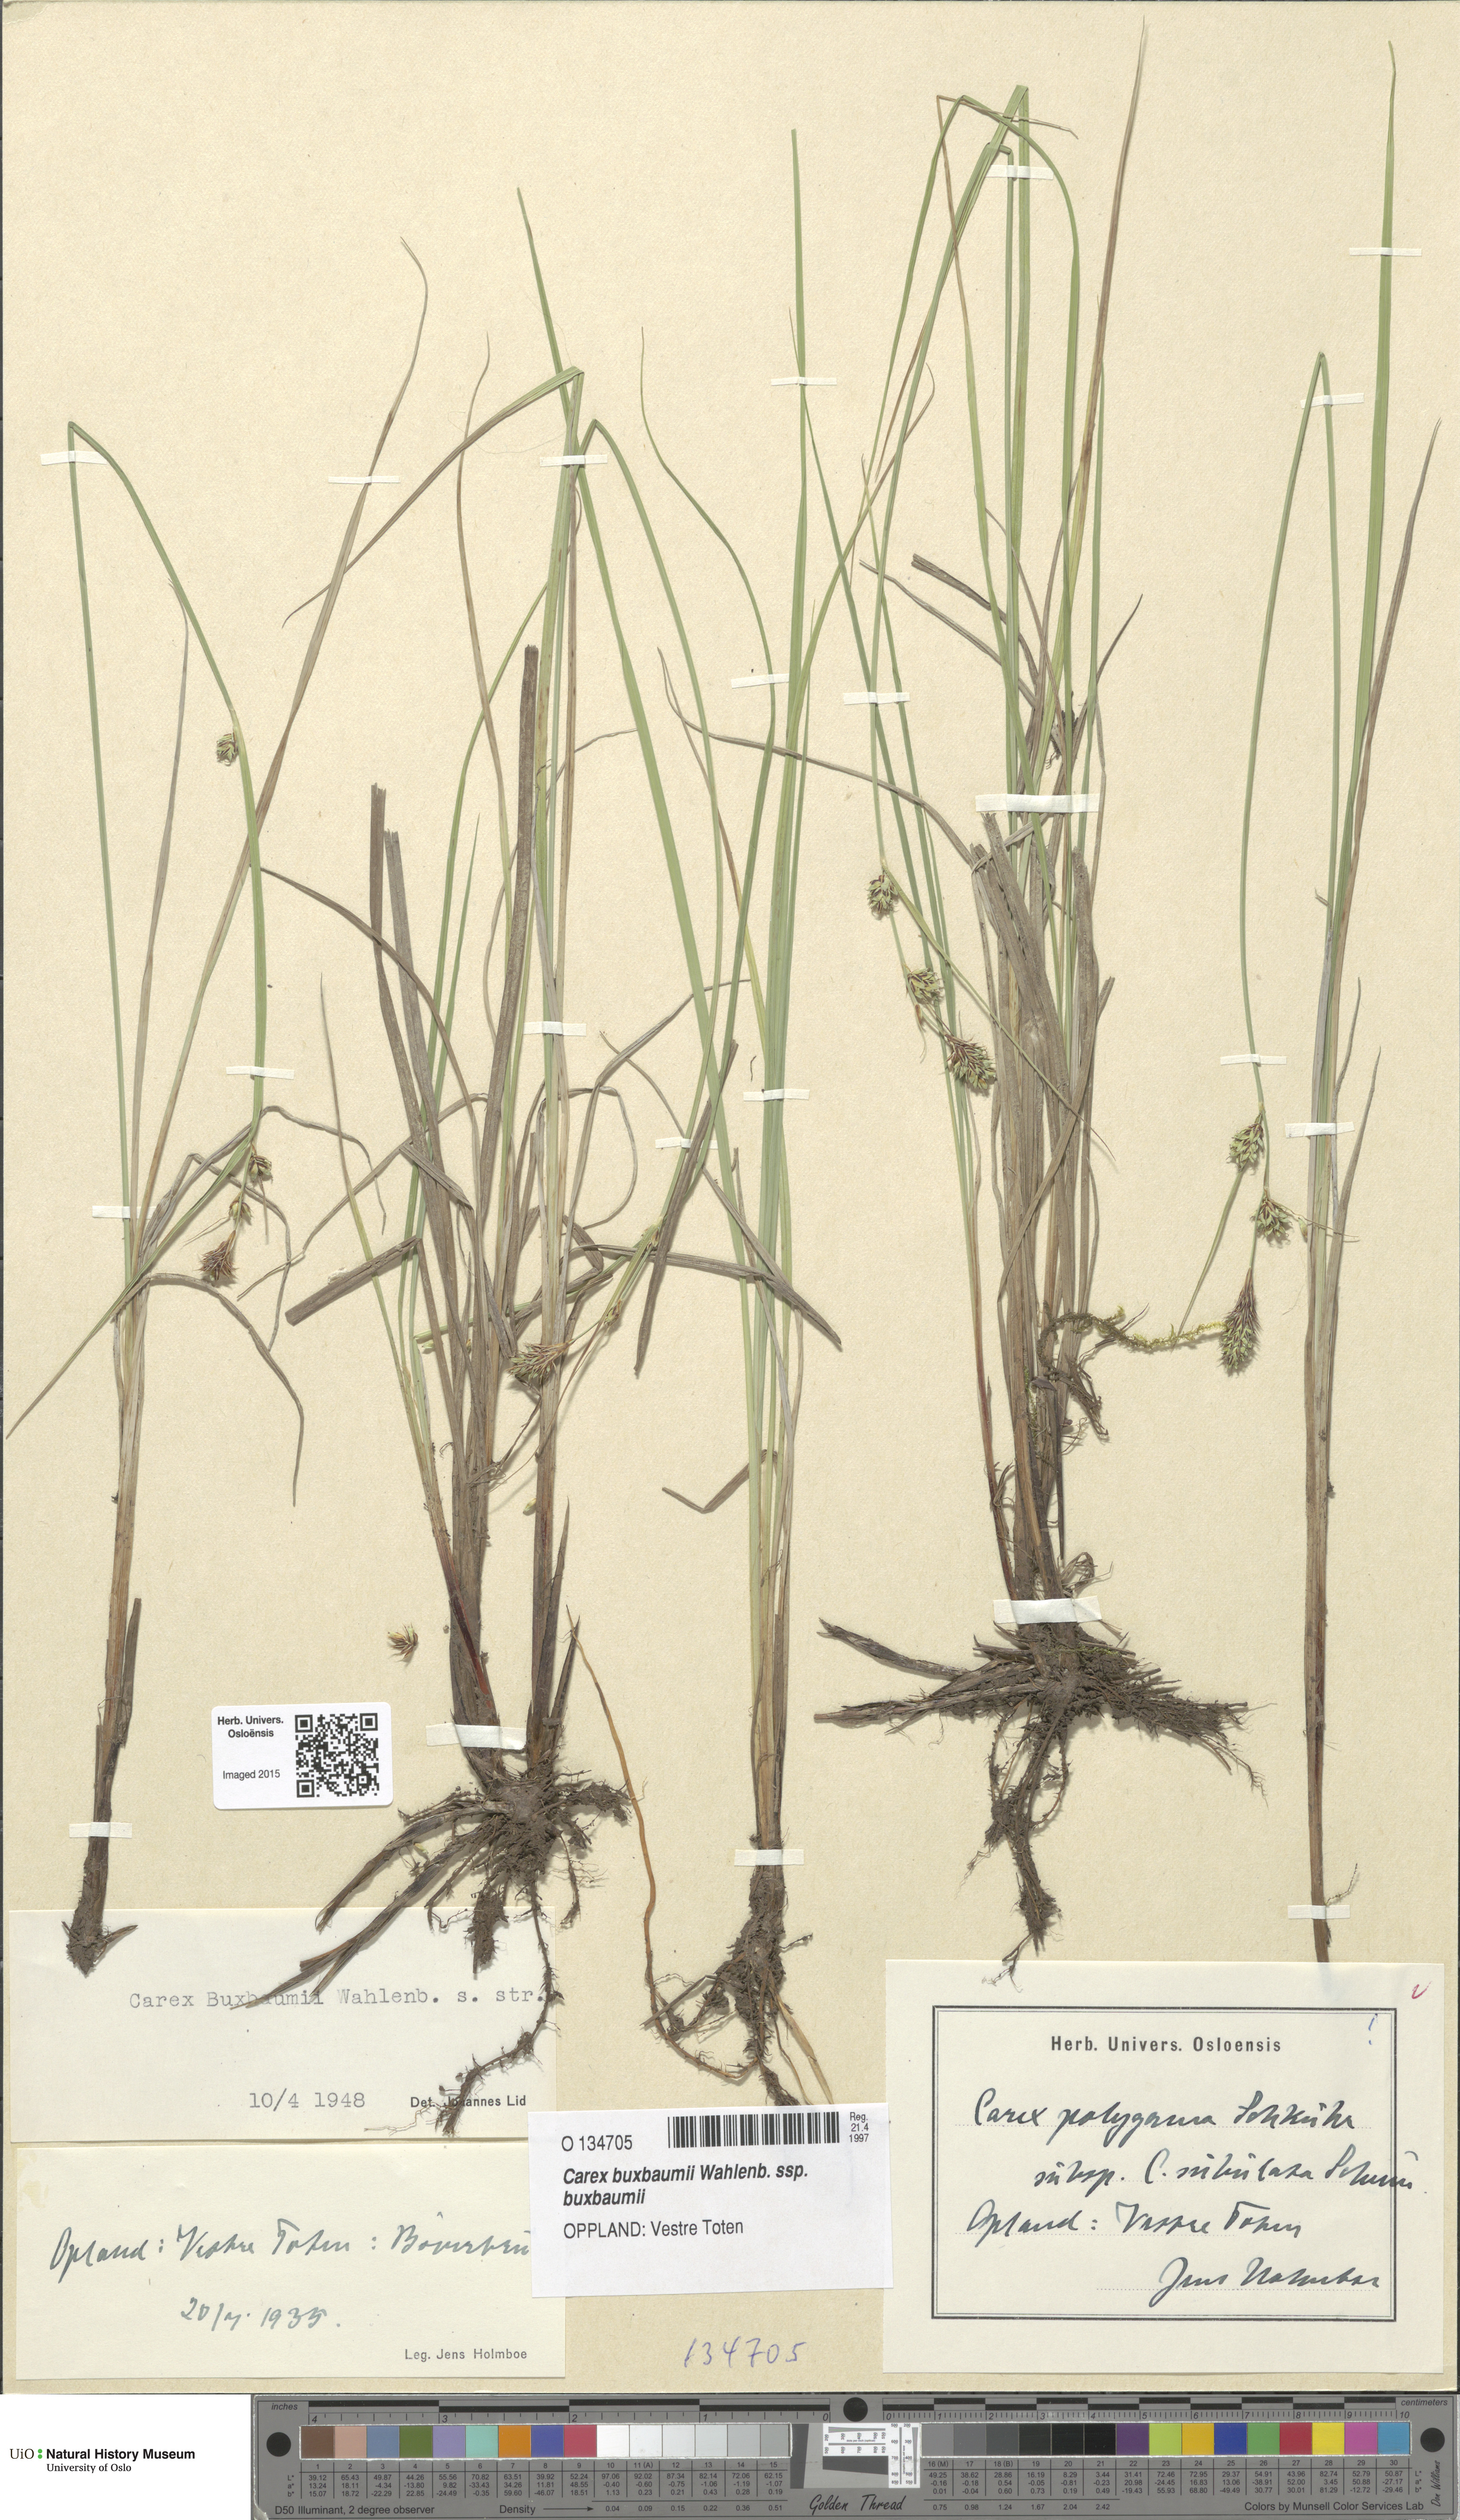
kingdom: Plantae
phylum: Tracheophyta
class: Liliopsida
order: Poales
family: Cyperaceae
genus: Carex
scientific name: Carex buxbaumii
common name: Club sedge
